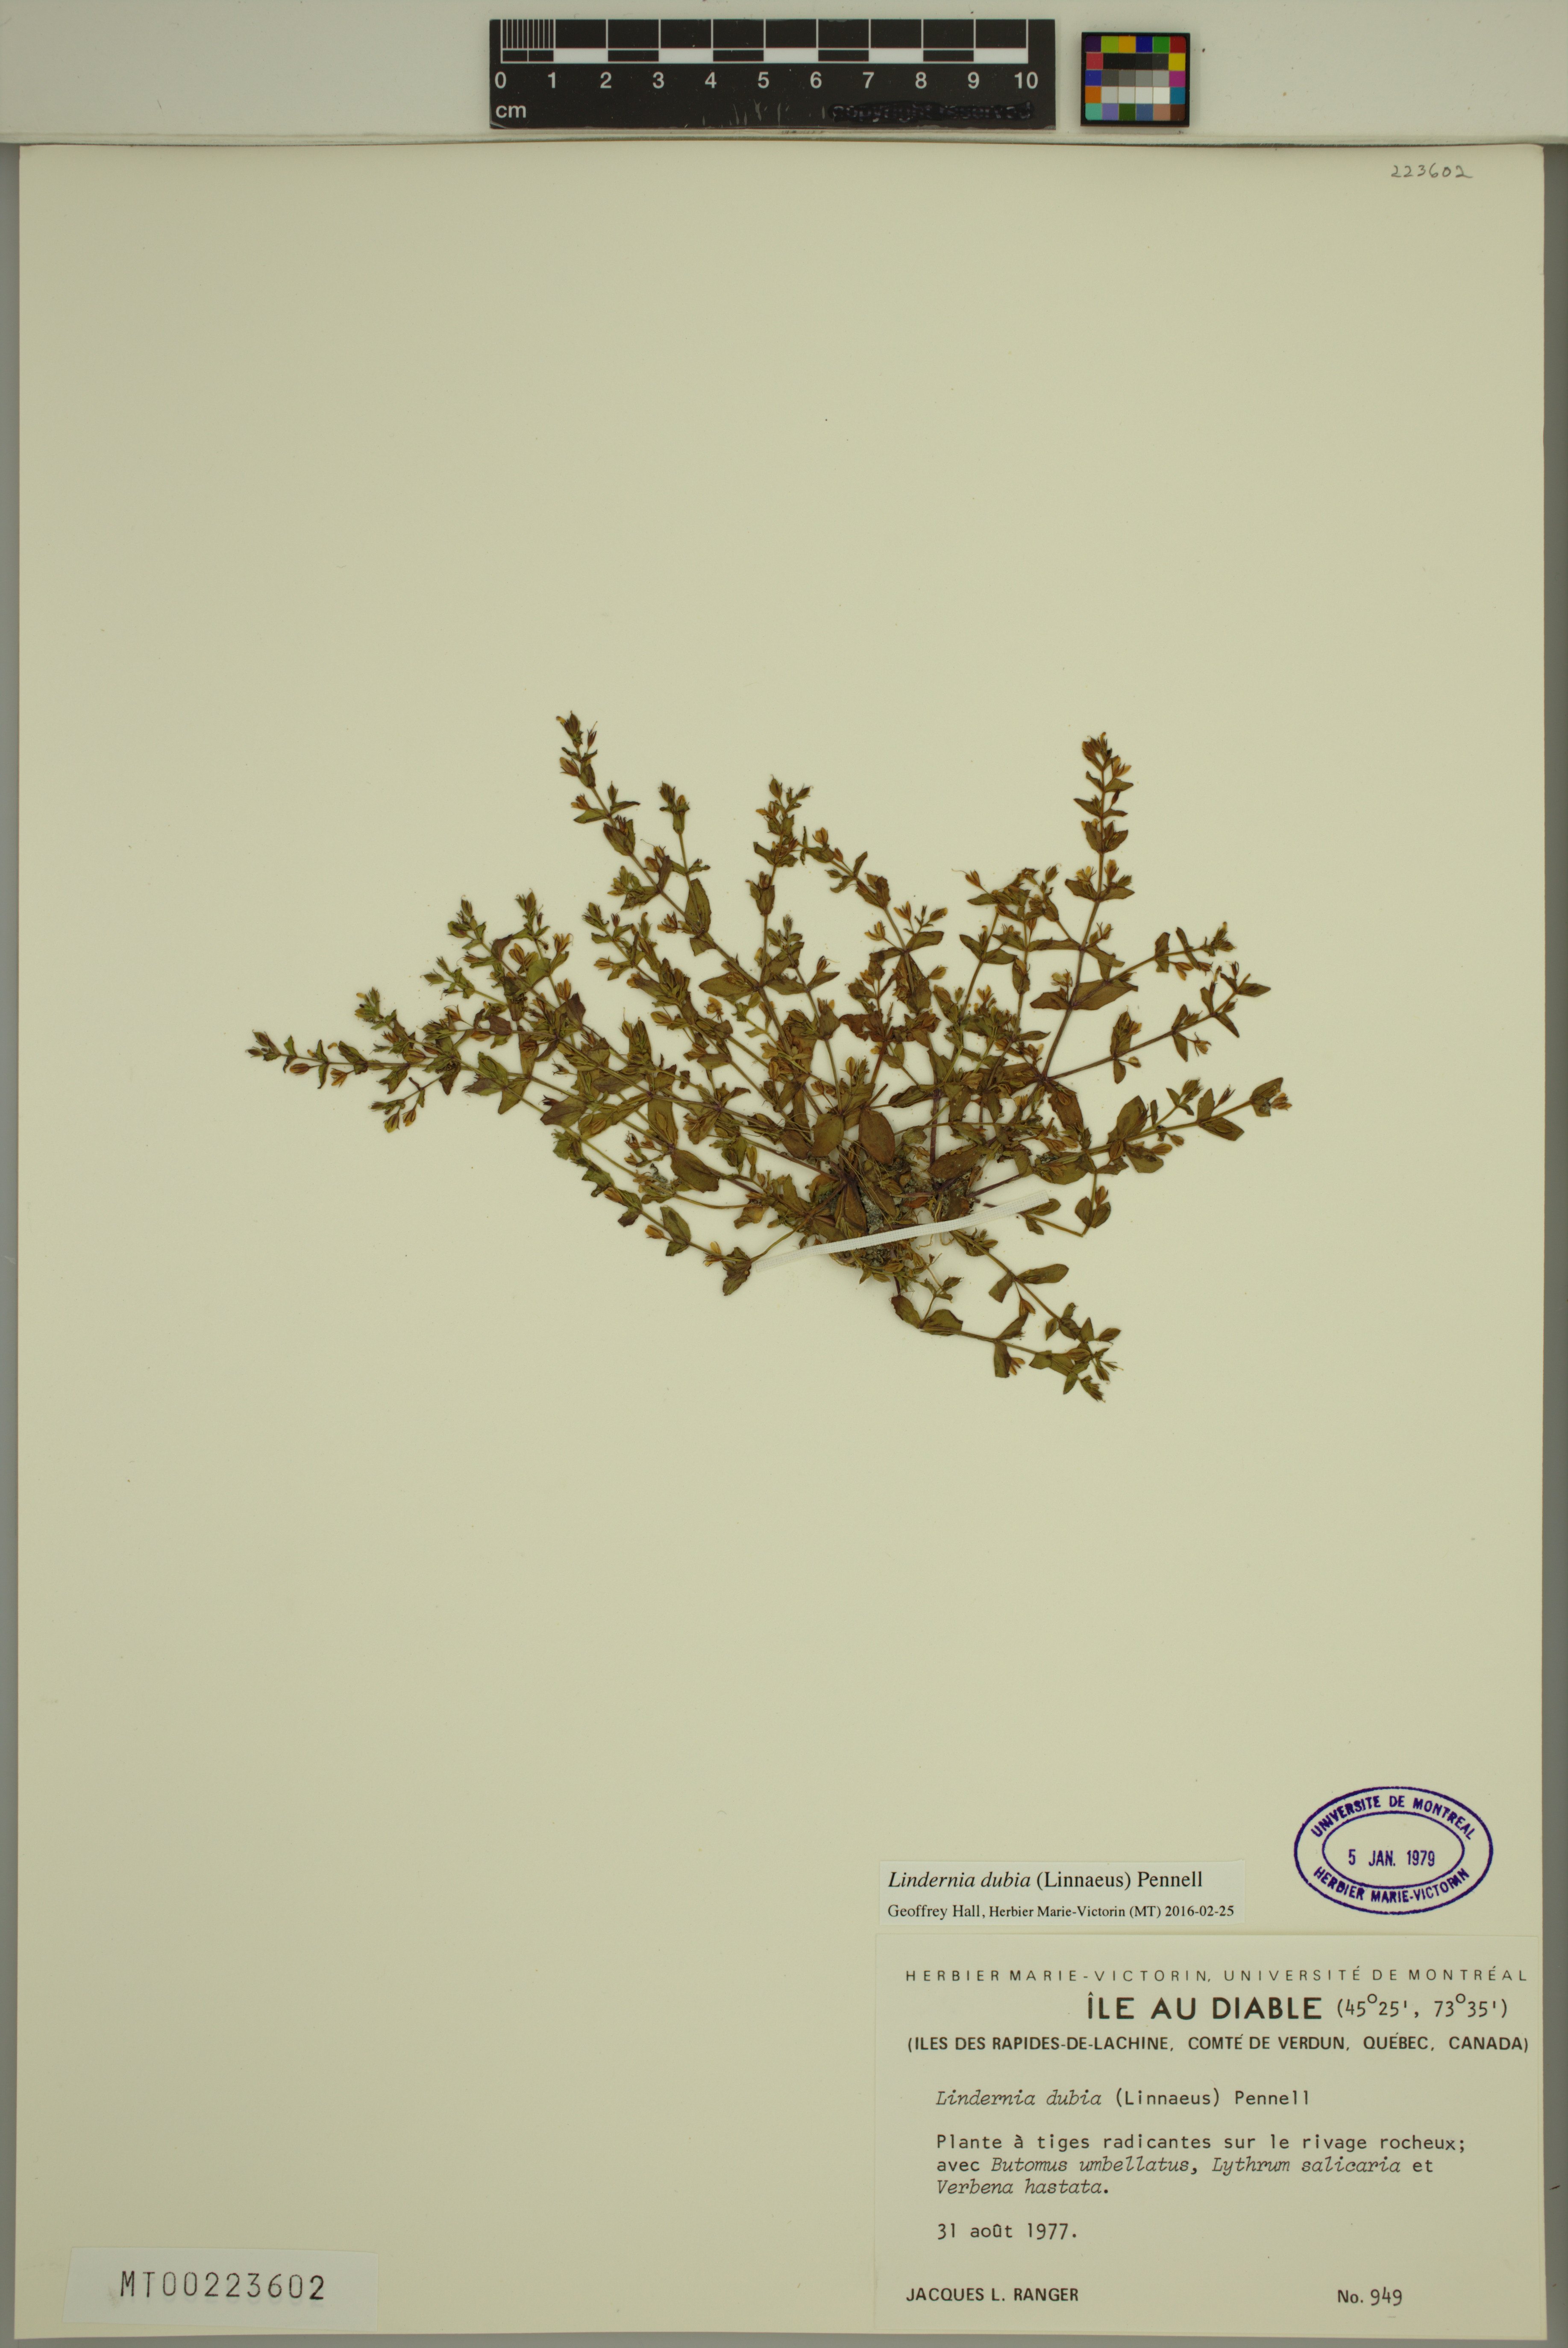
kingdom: Plantae
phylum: Tracheophyta
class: Magnoliopsida
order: Lamiales
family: Linderniaceae
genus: Lindernia
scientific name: Lindernia dubia
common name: Annual false pimpernel
